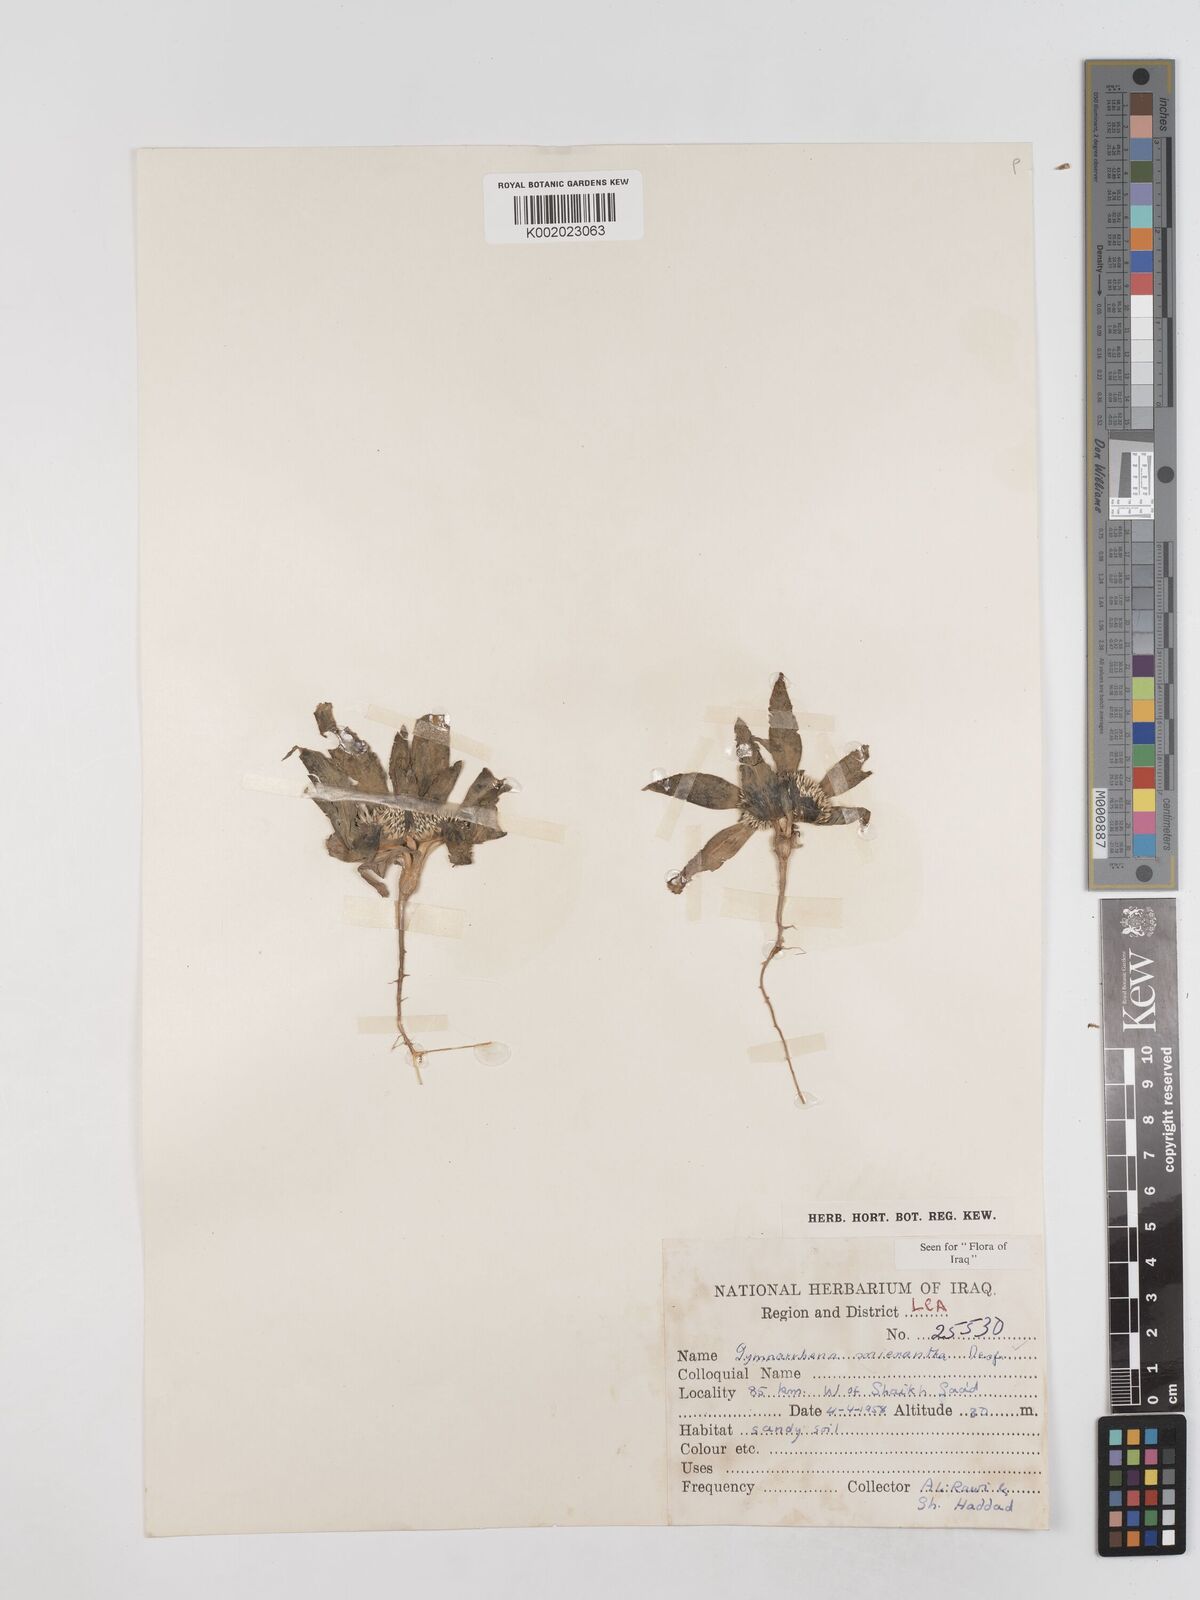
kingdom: Plantae
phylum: Tracheophyta
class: Magnoliopsida
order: Asterales
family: Asteraceae
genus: Gymnarrhena
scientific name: Gymnarrhena micrantha
